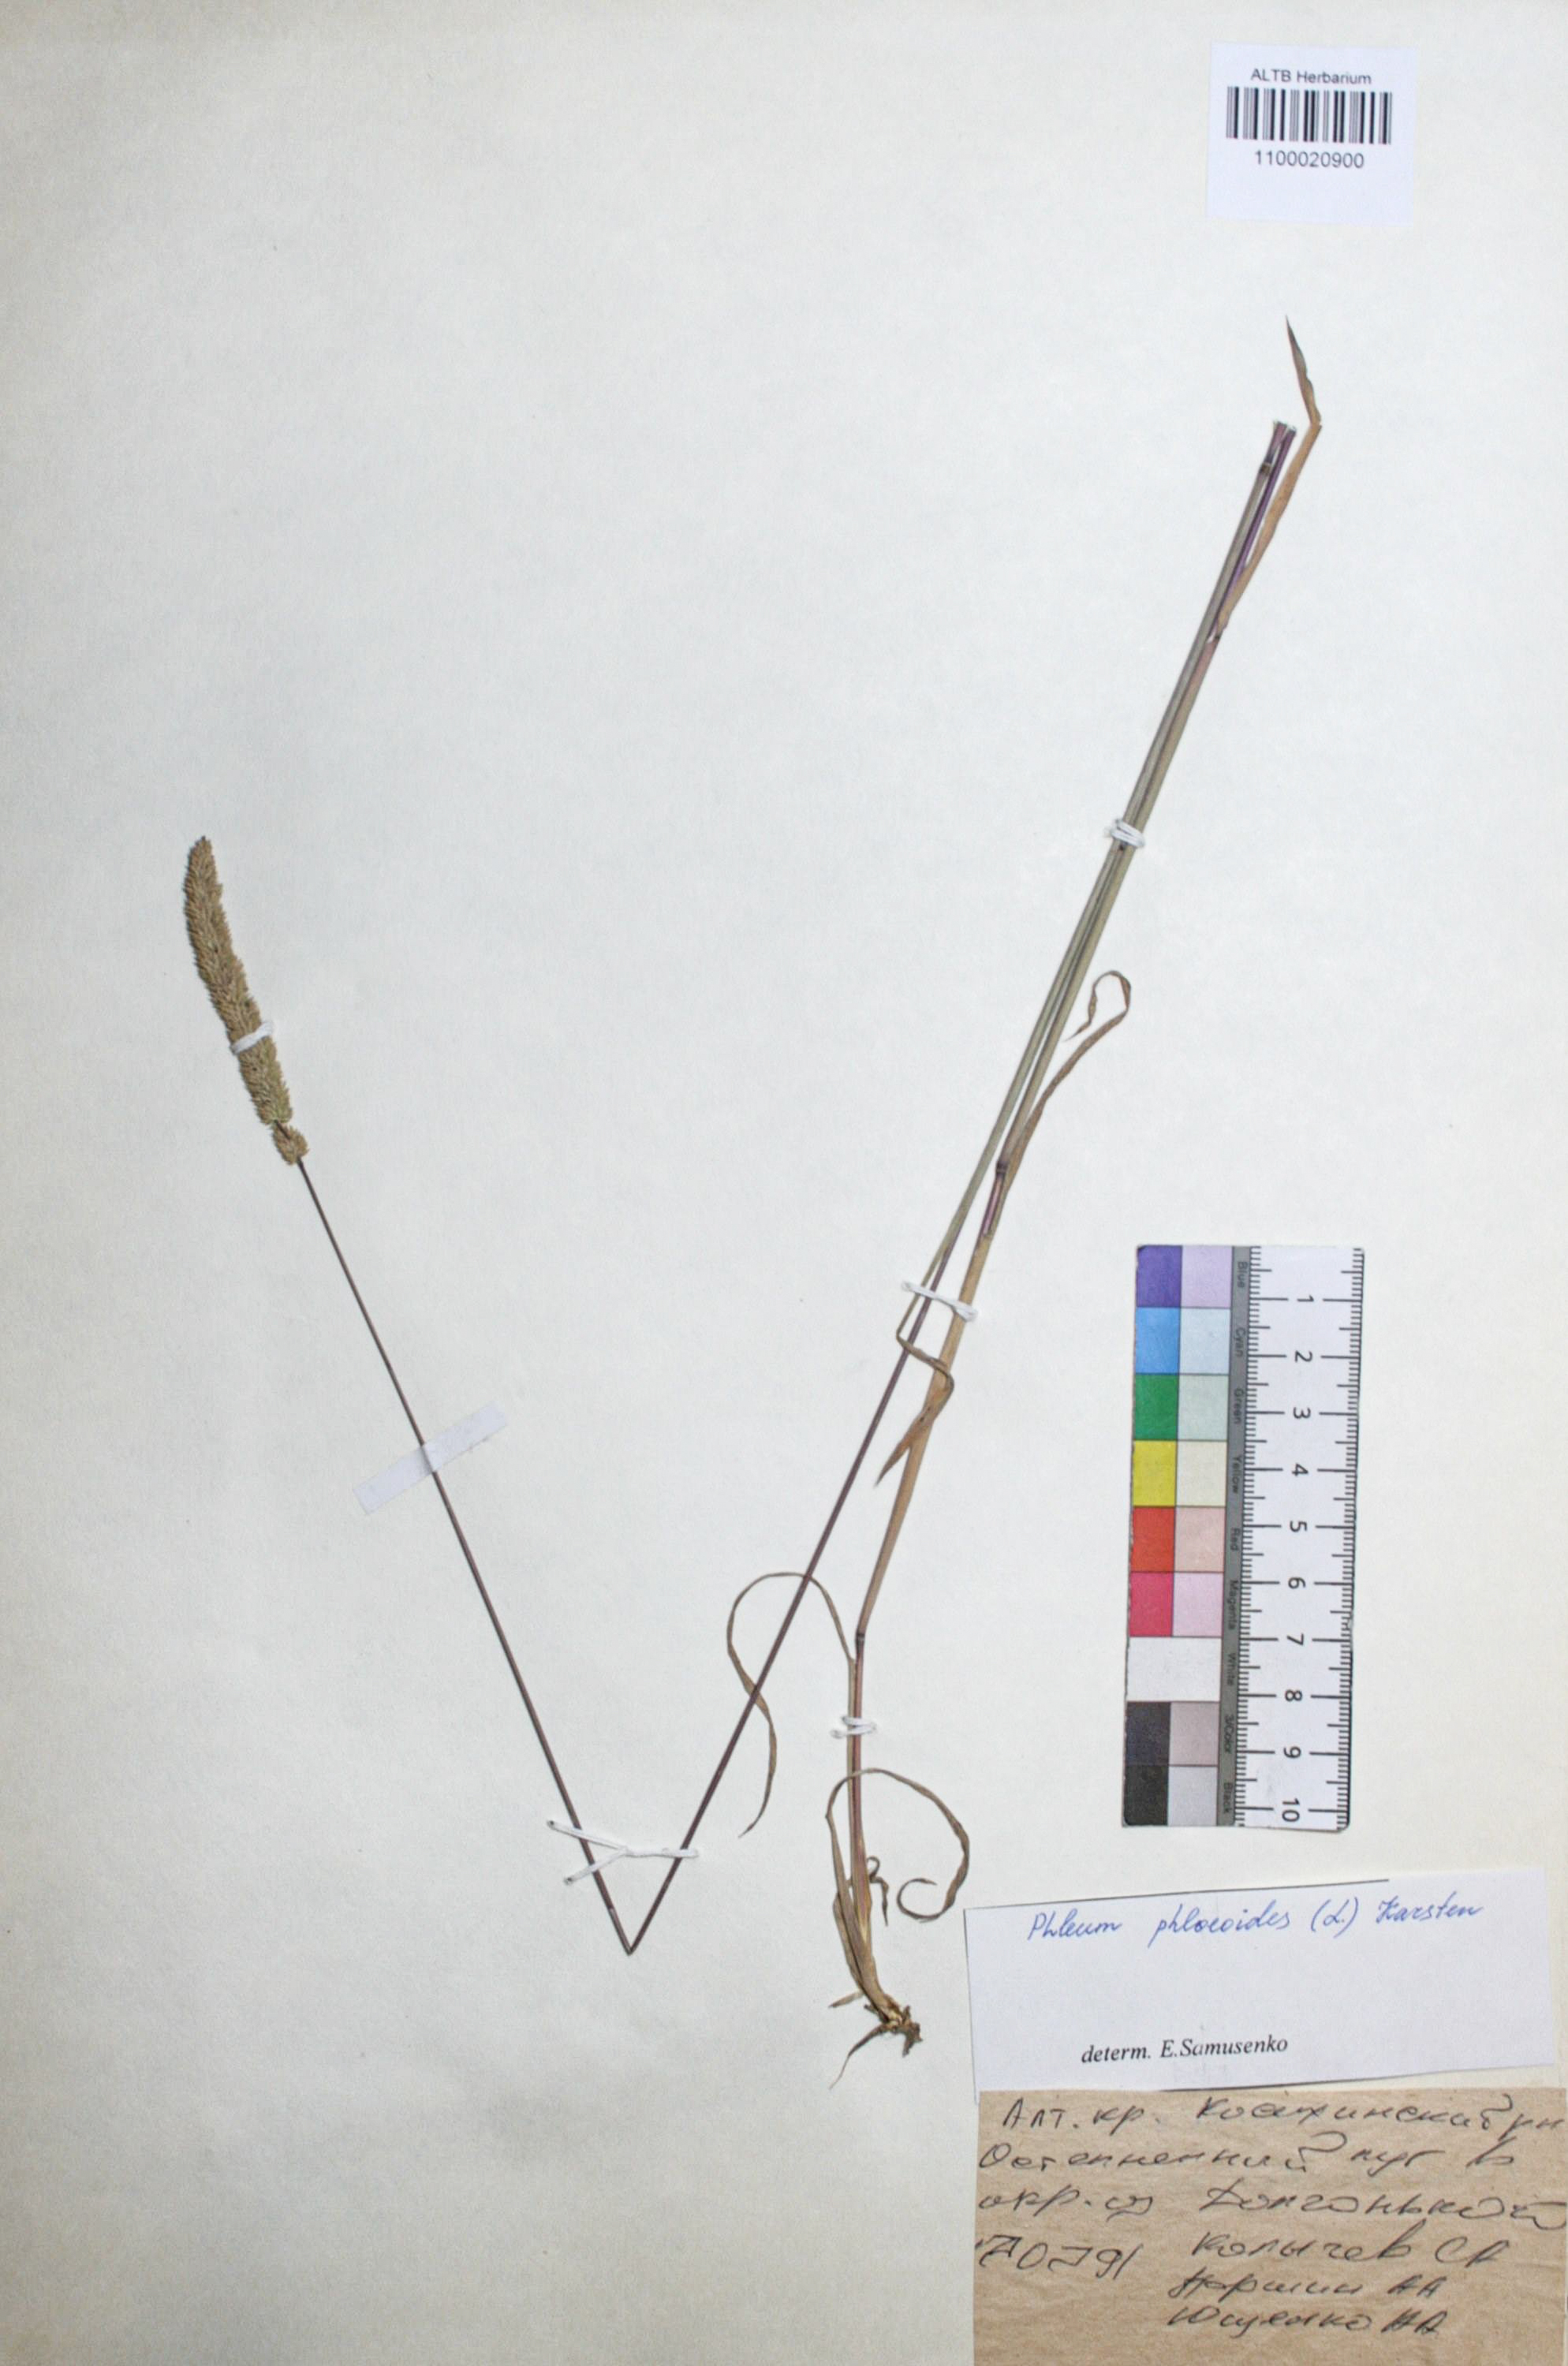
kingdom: Plantae
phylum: Tracheophyta
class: Liliopsida
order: Poales
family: Poaceae
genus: Phleum
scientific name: Phleum phleoides
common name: Purple-stem cat's-tail
